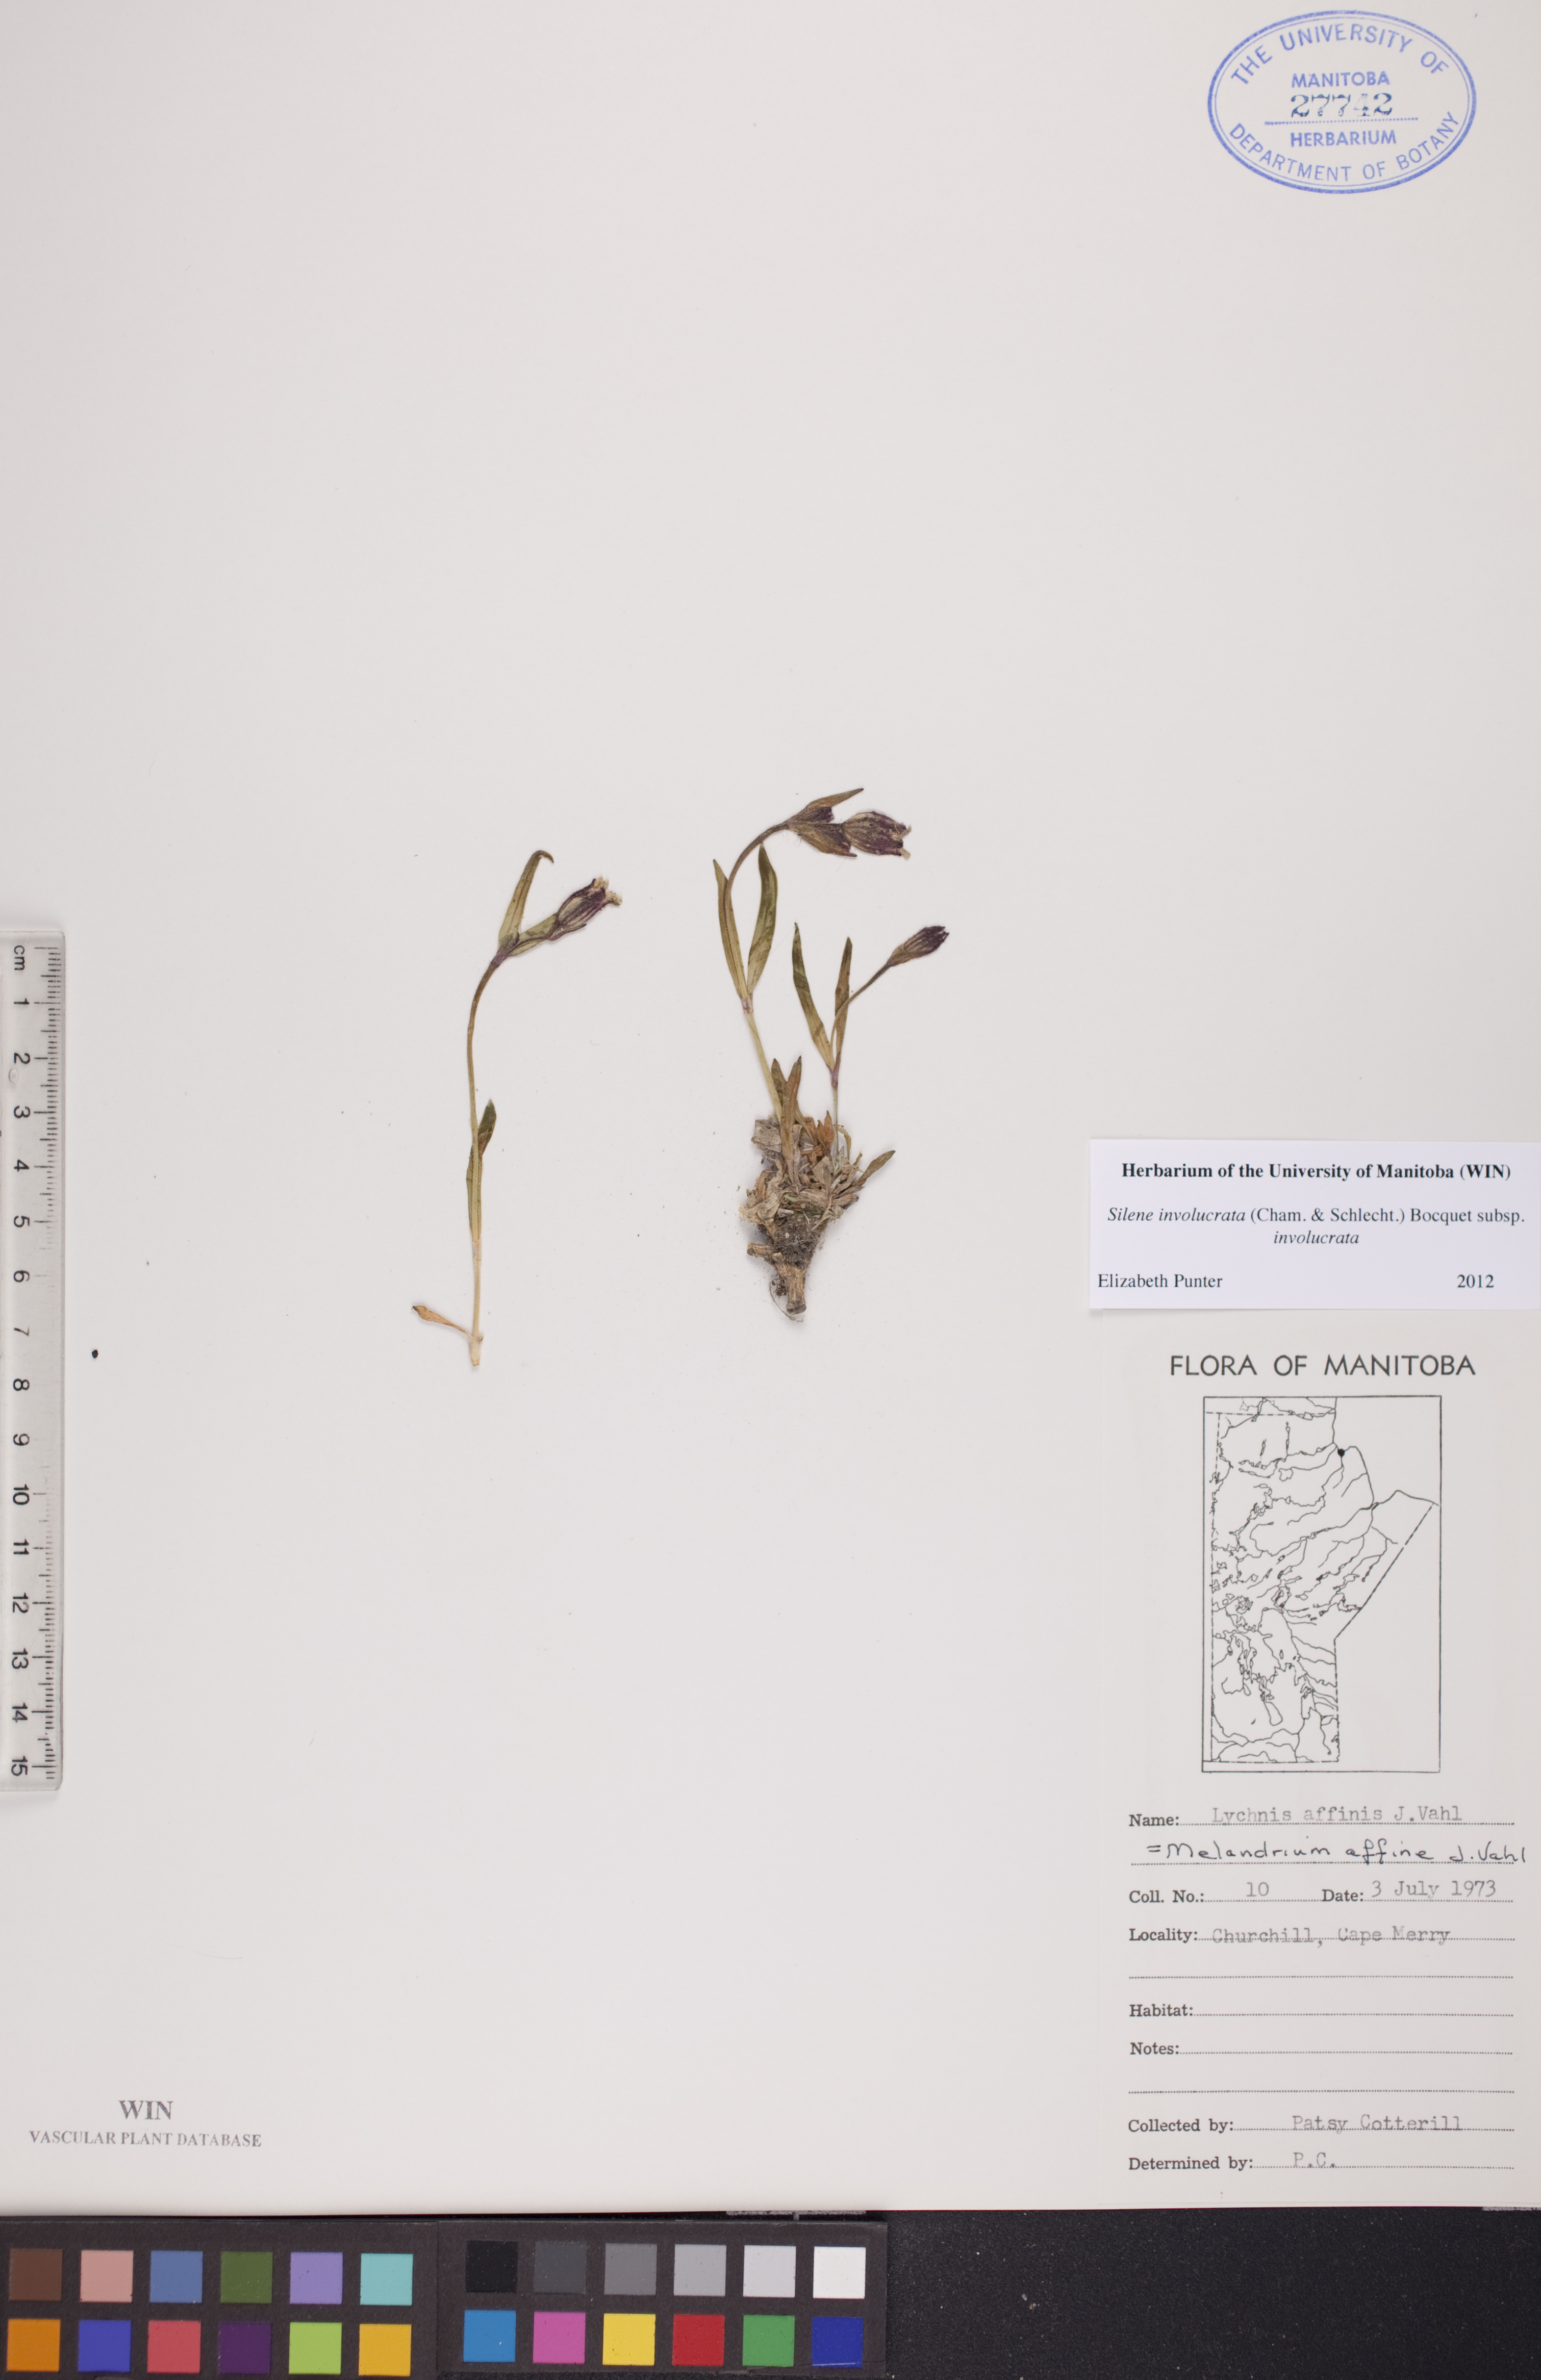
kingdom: Plantae
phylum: Tracheophyta
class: Magnoliopsida
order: Caryophyllales
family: Caryophyllaceae
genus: Silene
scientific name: Silene involucrata
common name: Greater arctic campion
